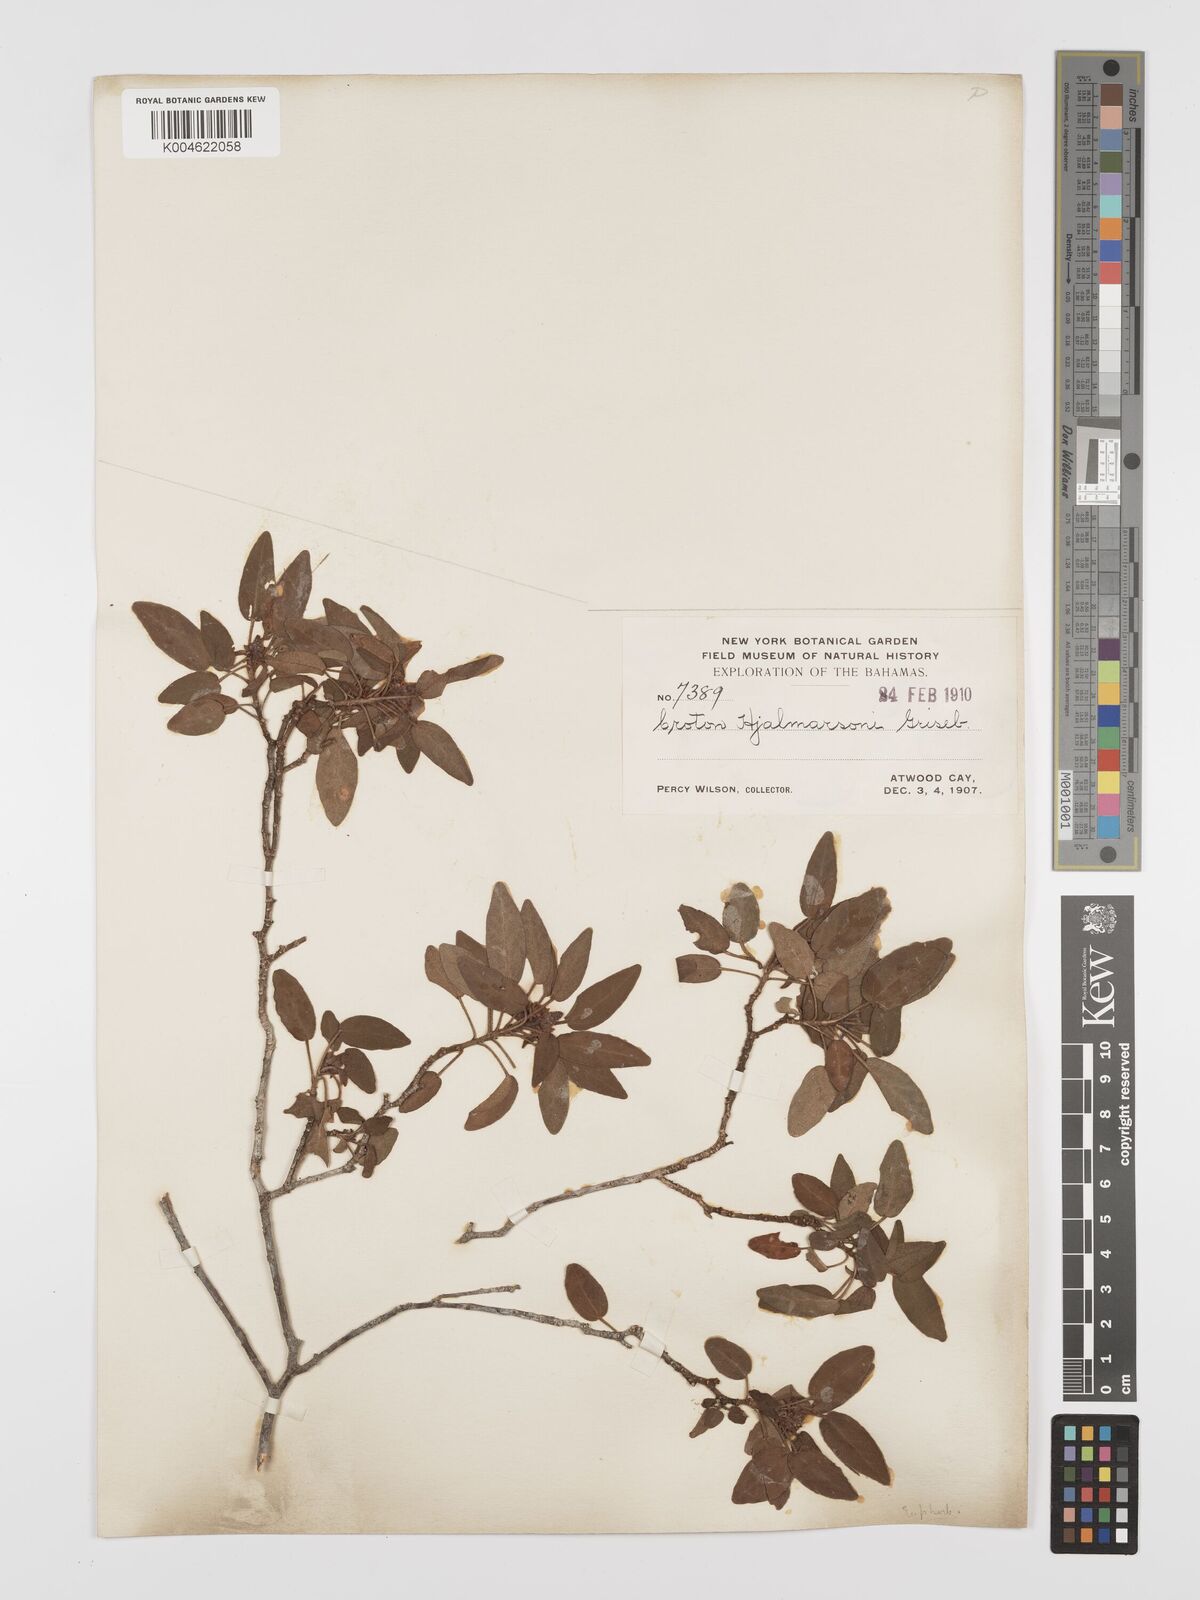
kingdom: Plantae
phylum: Tracheophyta
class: Magnoliopsida
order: Malpighiales
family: Euphorbiaceae
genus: Croton
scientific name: Croton glabellus
